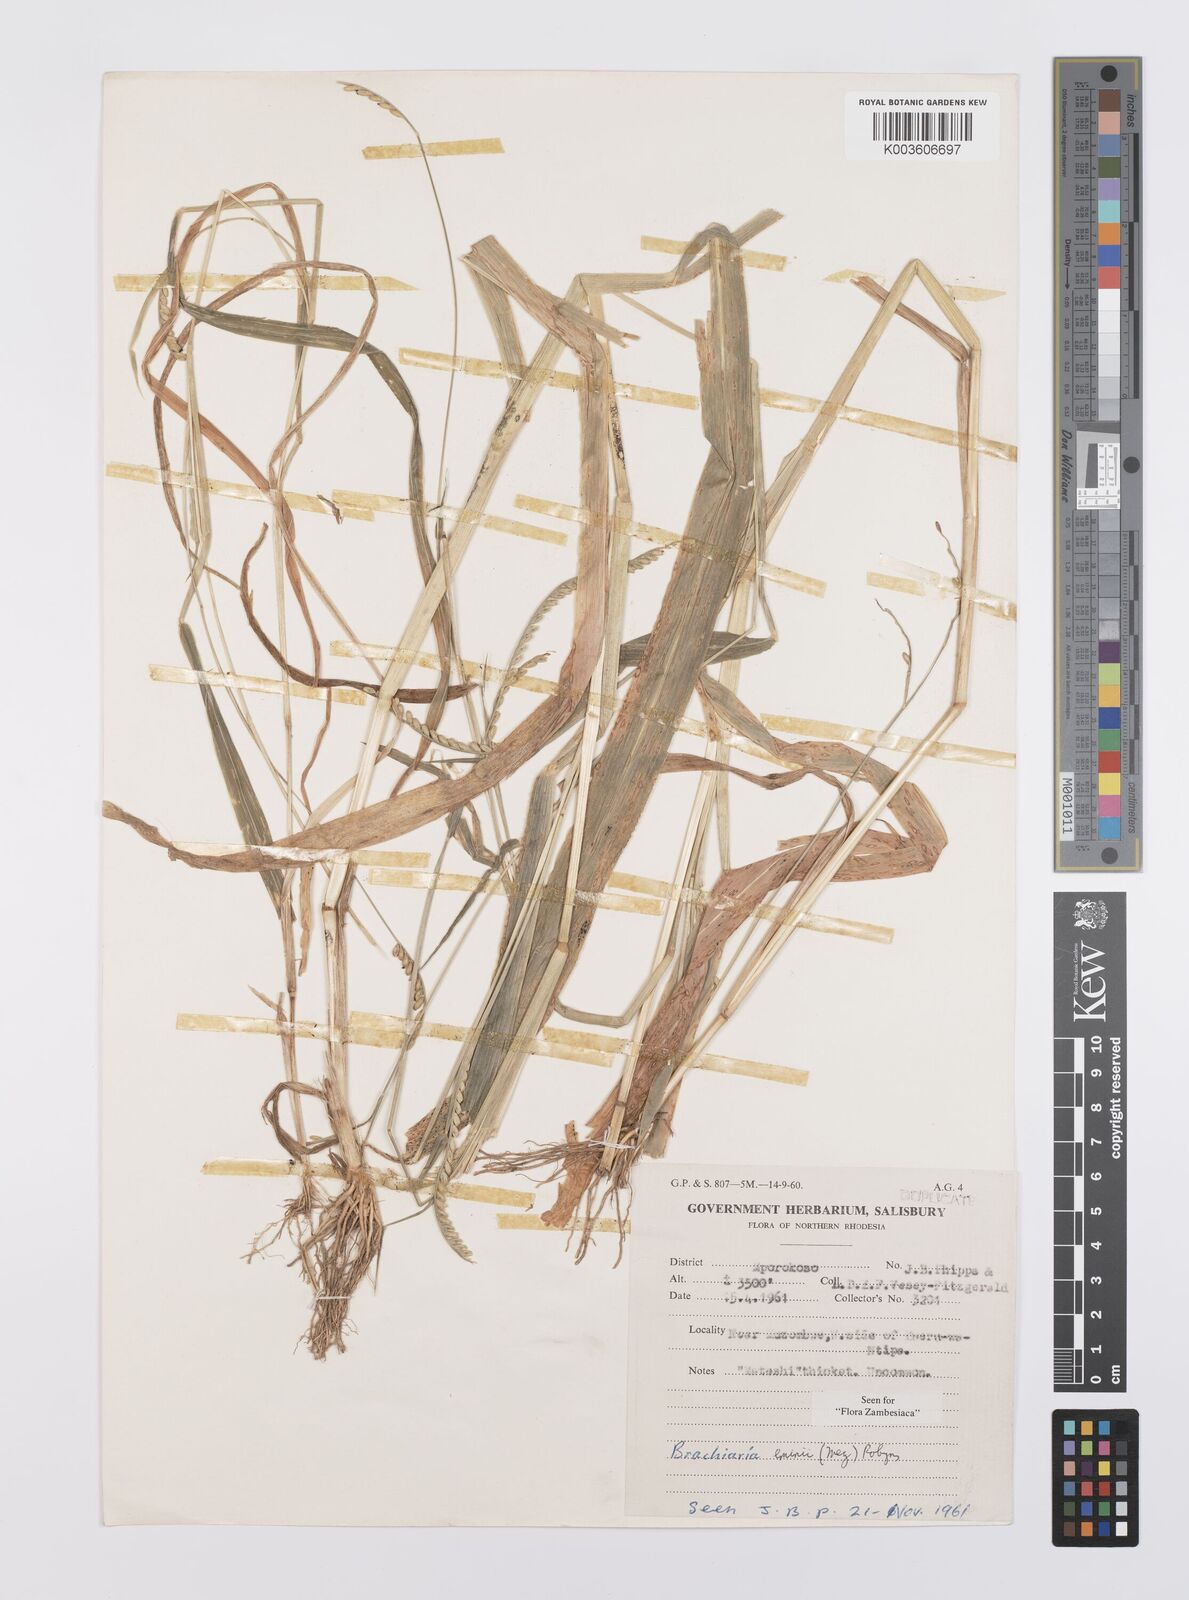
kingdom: Plantae
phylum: Tracheophyta
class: Liliopsida
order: Poales
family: Poaceae
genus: Urochloa
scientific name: Urochloa eminii
